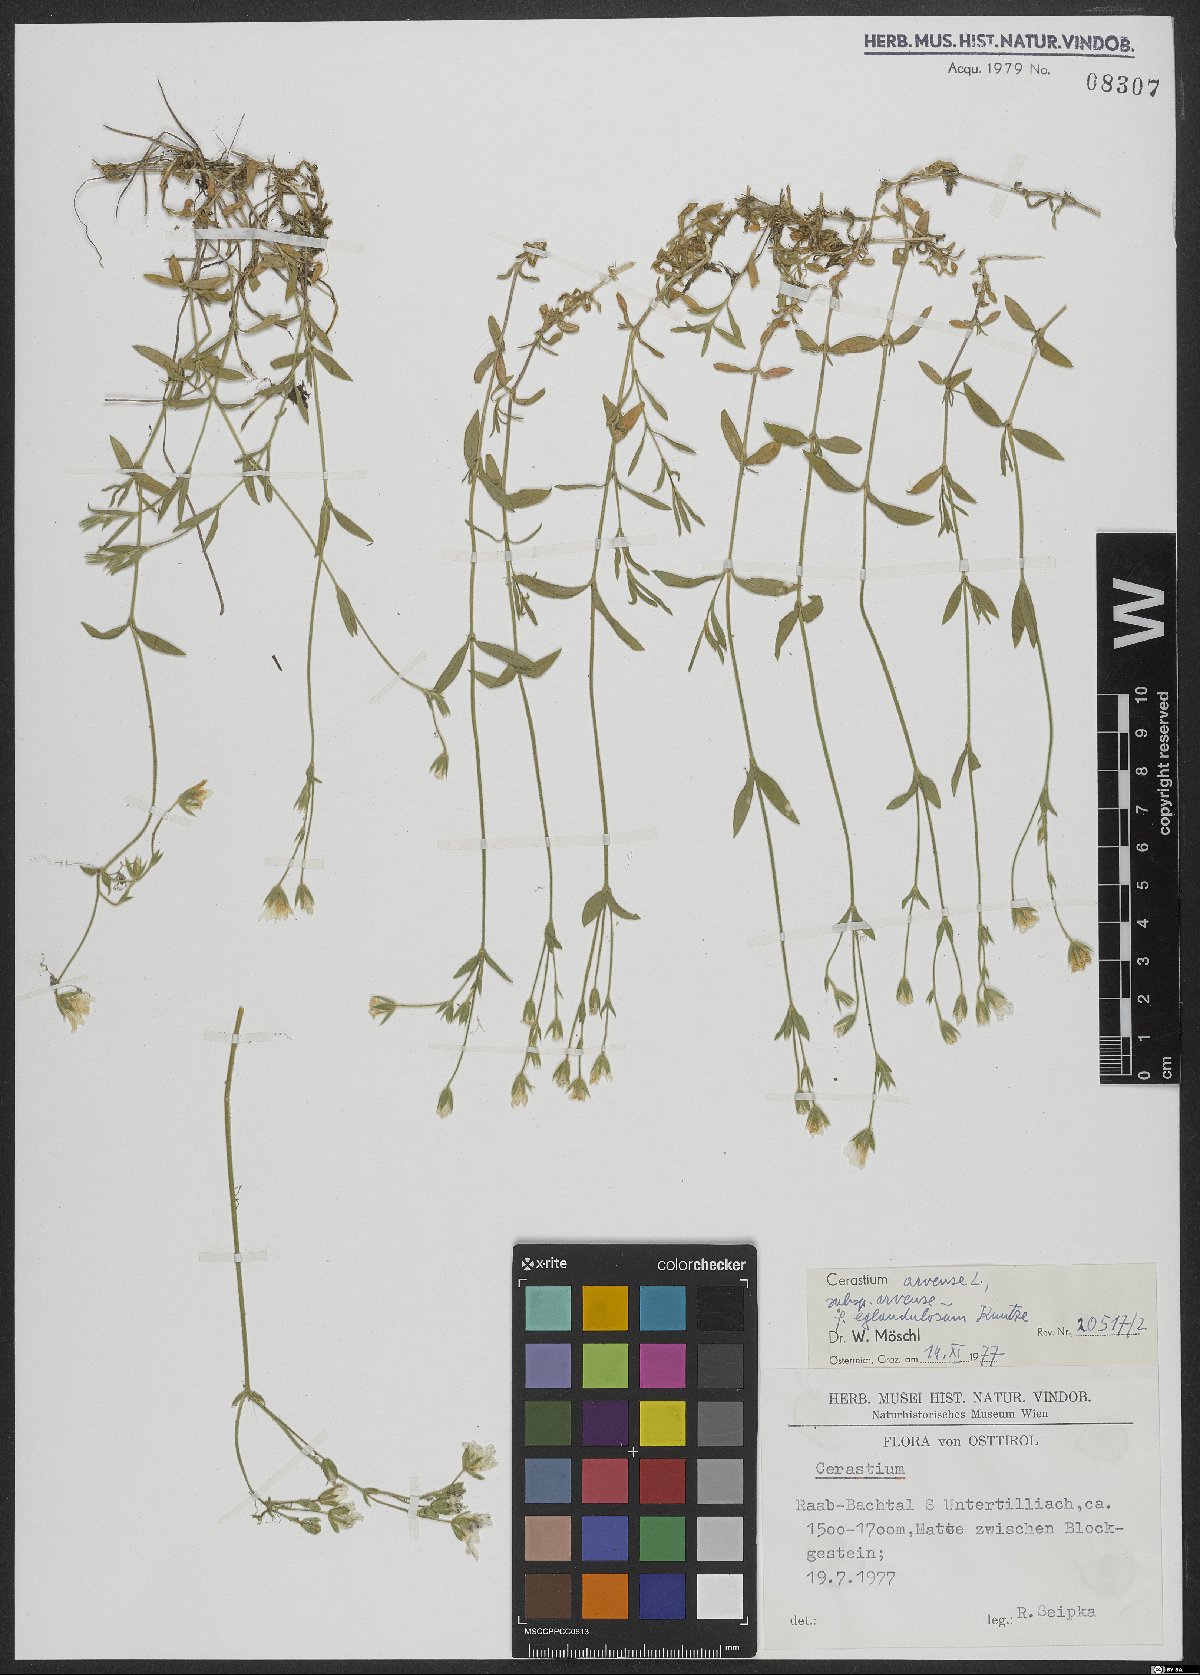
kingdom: Plantae
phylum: Tracheophyta
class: Magnoliopsida
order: Caryophyllales
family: Caryophyllaceae
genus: Cerastium
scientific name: Cerastium arvense
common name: Field mouse-ear
